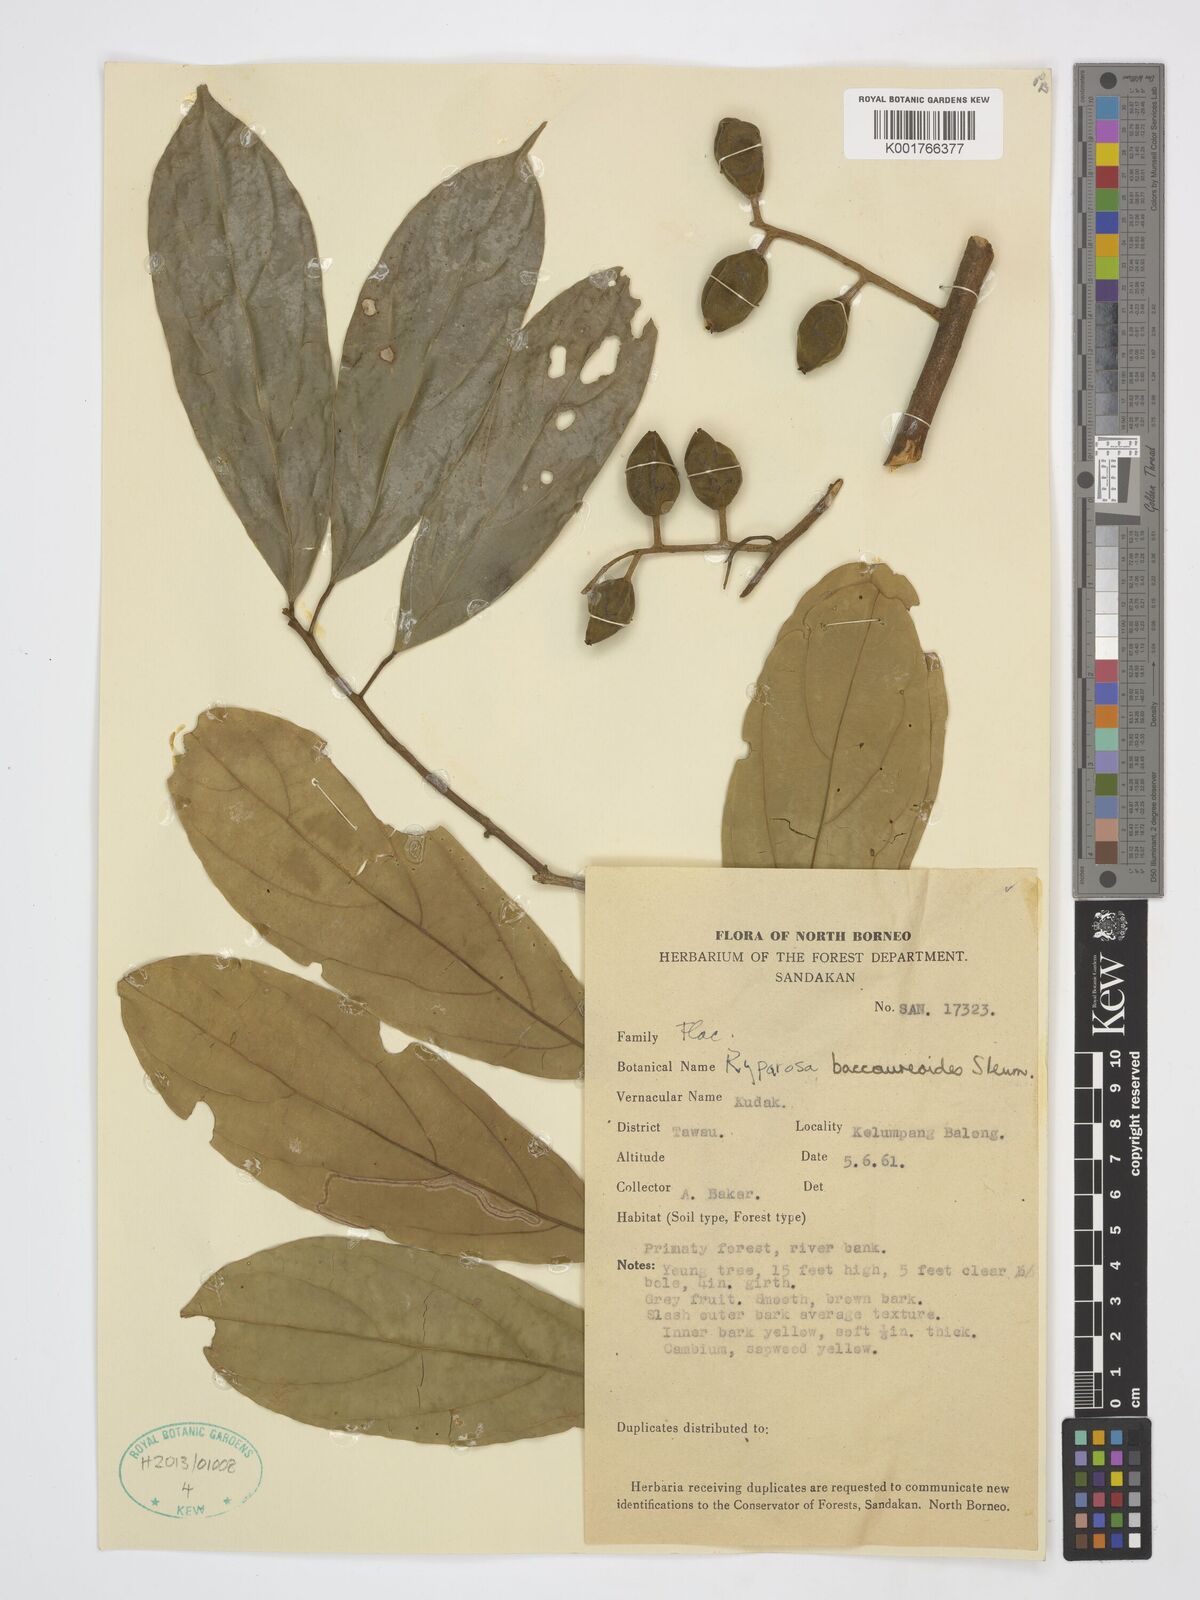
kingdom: Plantae
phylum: Tracheophyta
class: Magnoliopsida
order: Malpighiales
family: Achariaceae
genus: Ryparosa
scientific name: Ryparosa baccaureoides
